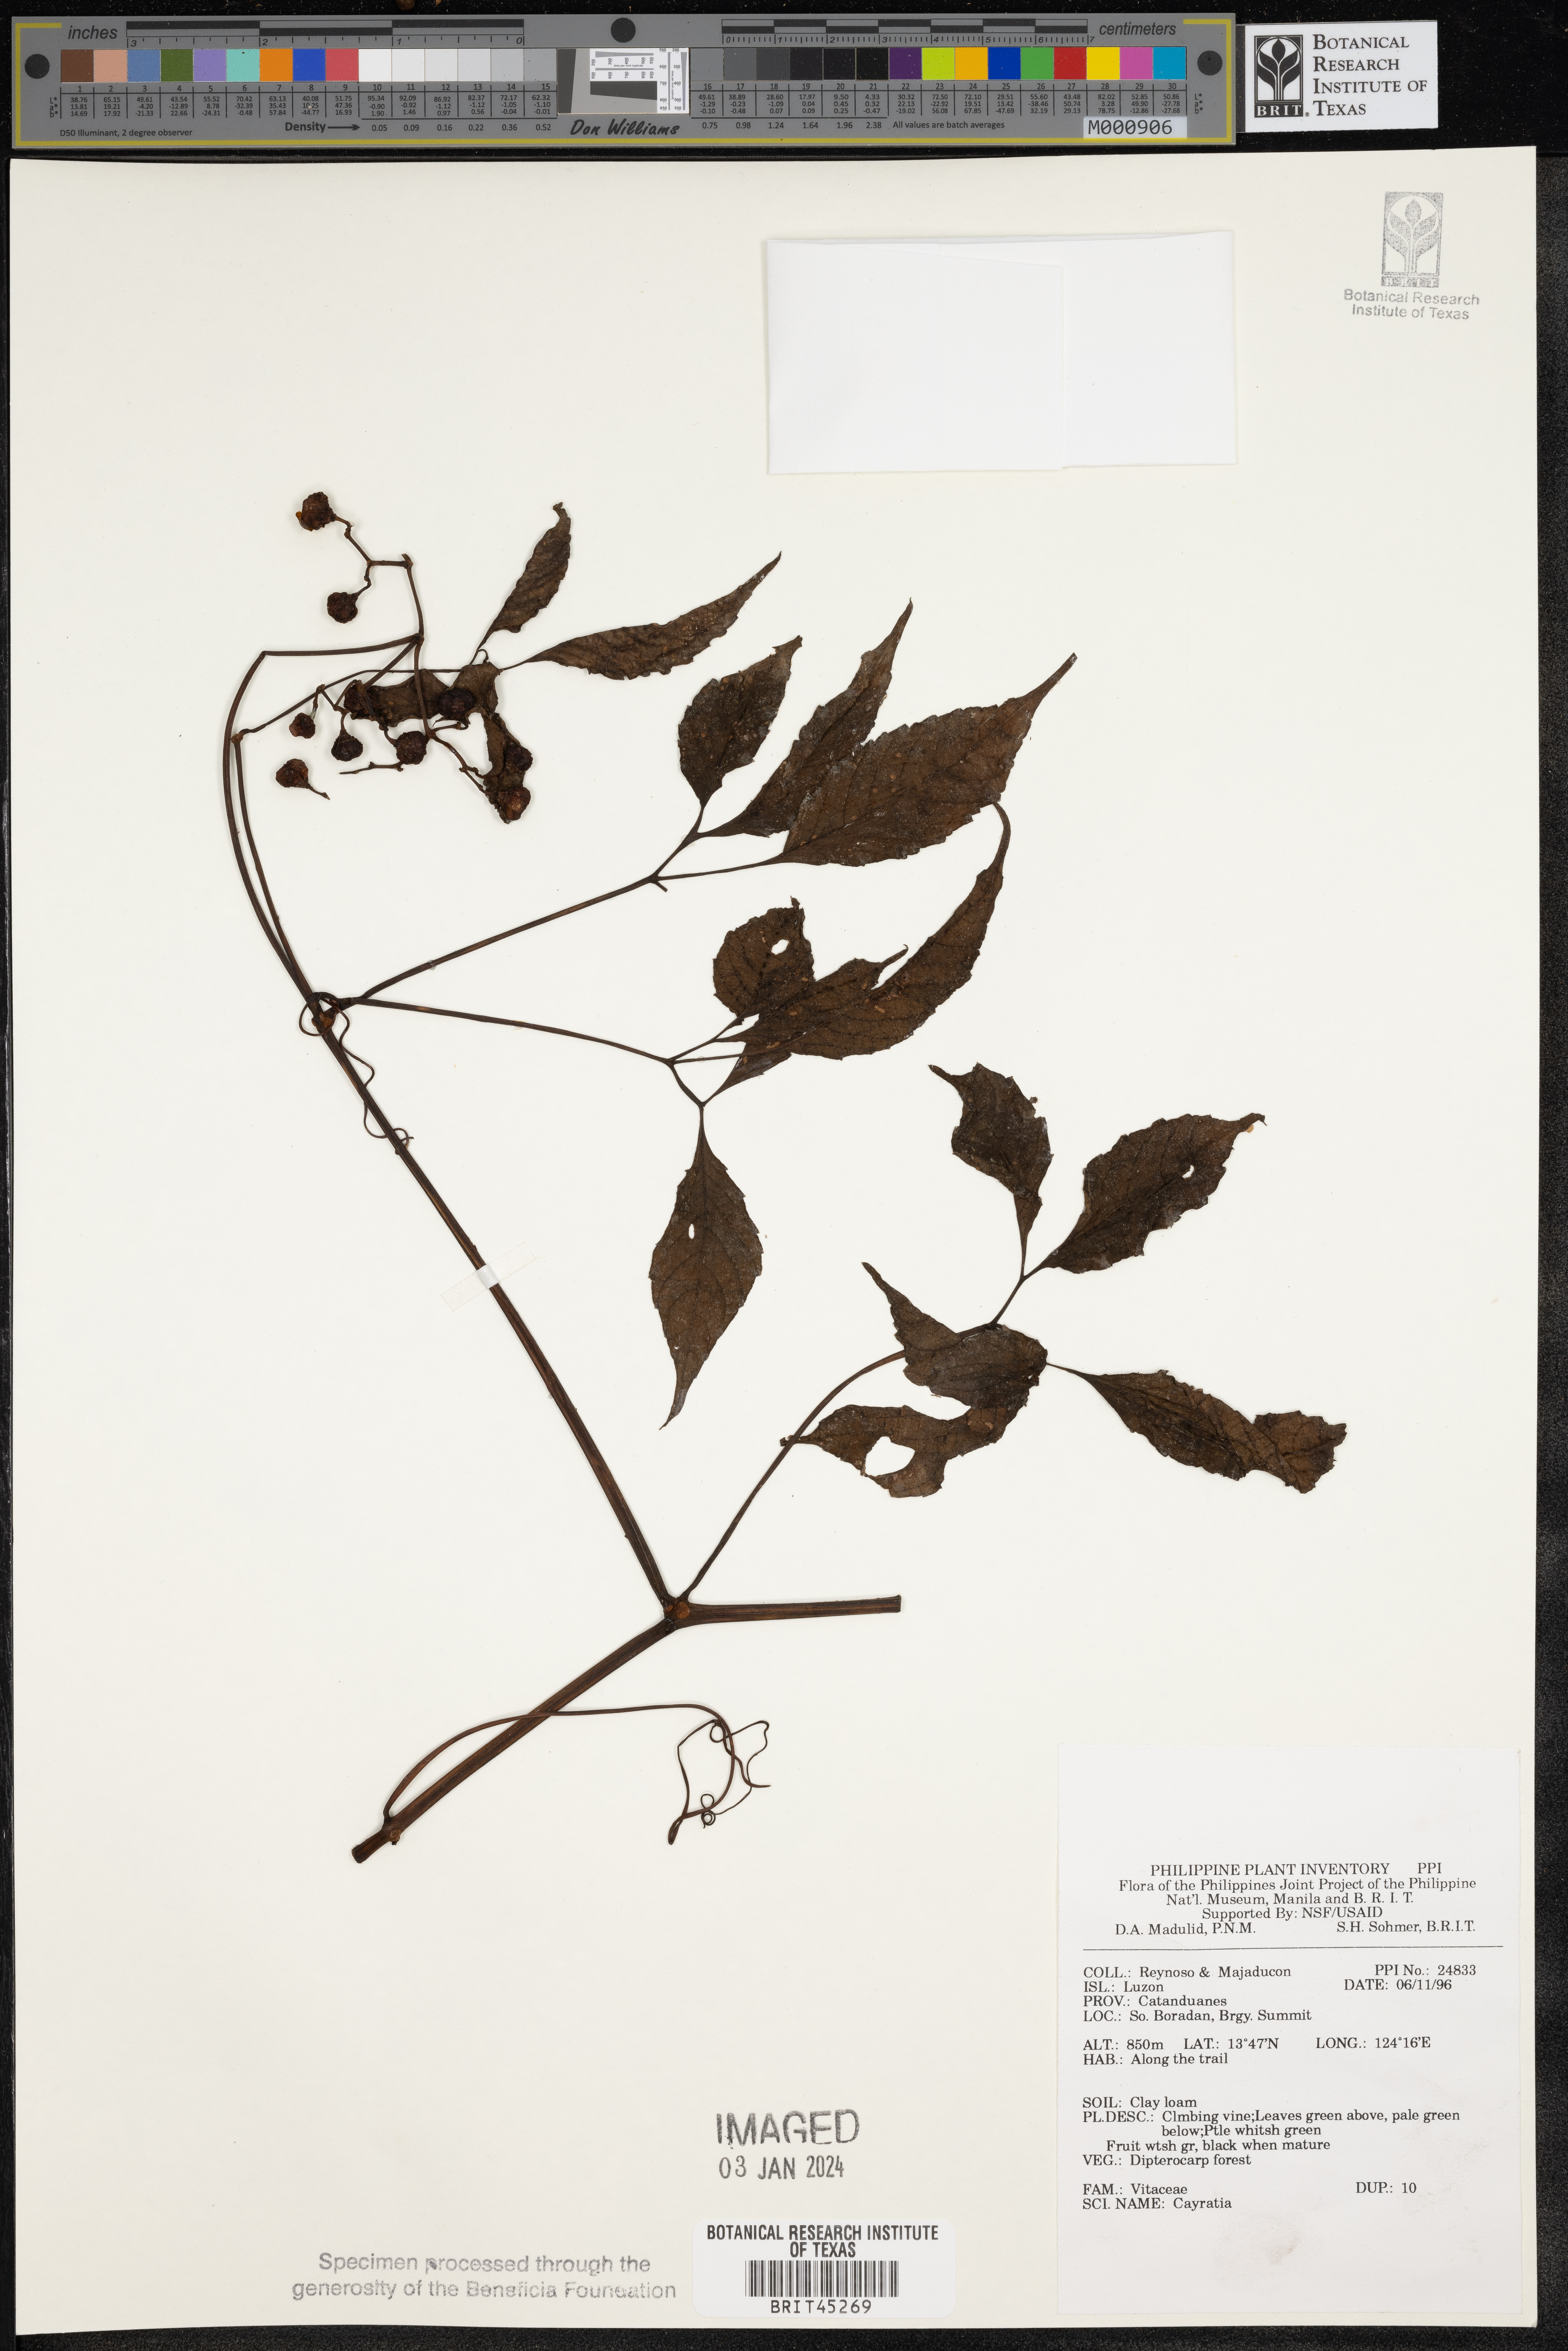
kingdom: Plantae
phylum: Tracheophyta
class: Magnoliopsida
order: Vitales
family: Vitaceae
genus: Cayratia
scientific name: Cayratia
